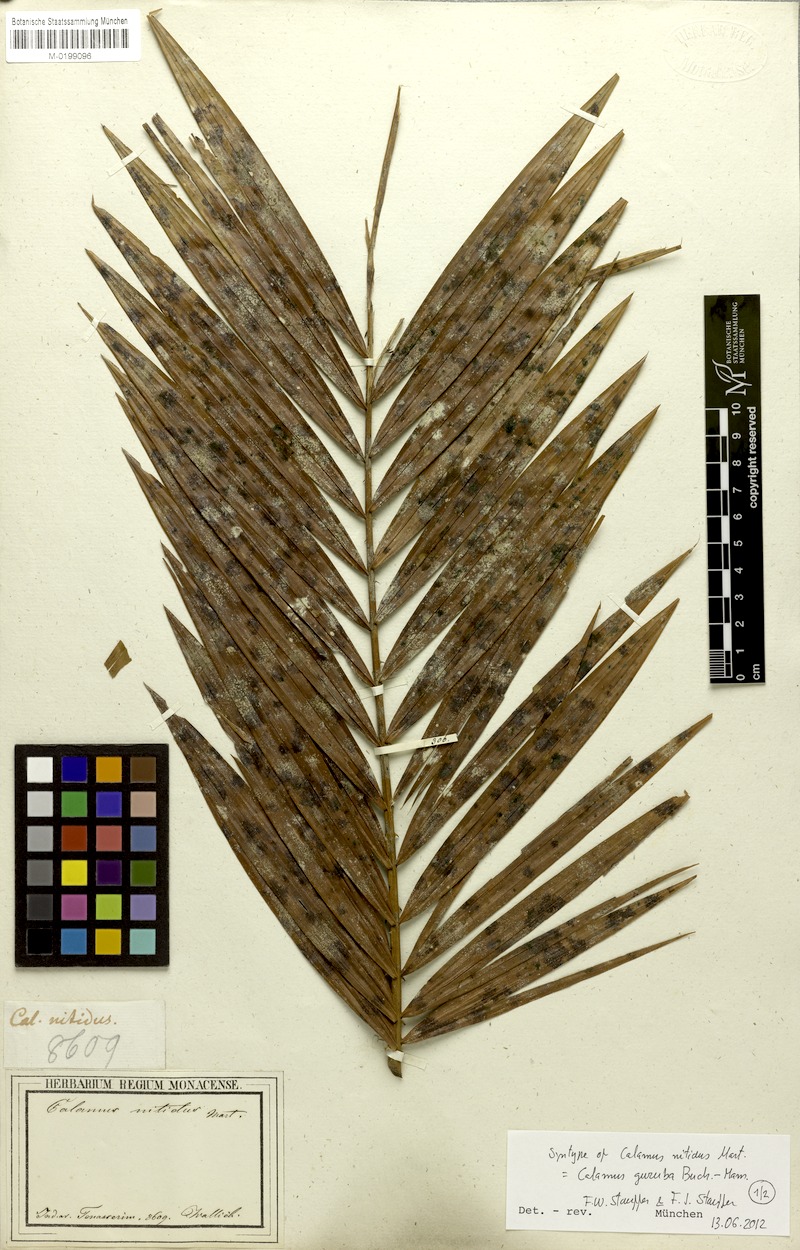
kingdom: Plantae
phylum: Tracheophyta
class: Liliopsida
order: Arecales
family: Arecaceae
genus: Calamus
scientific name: Calamus nitidus
